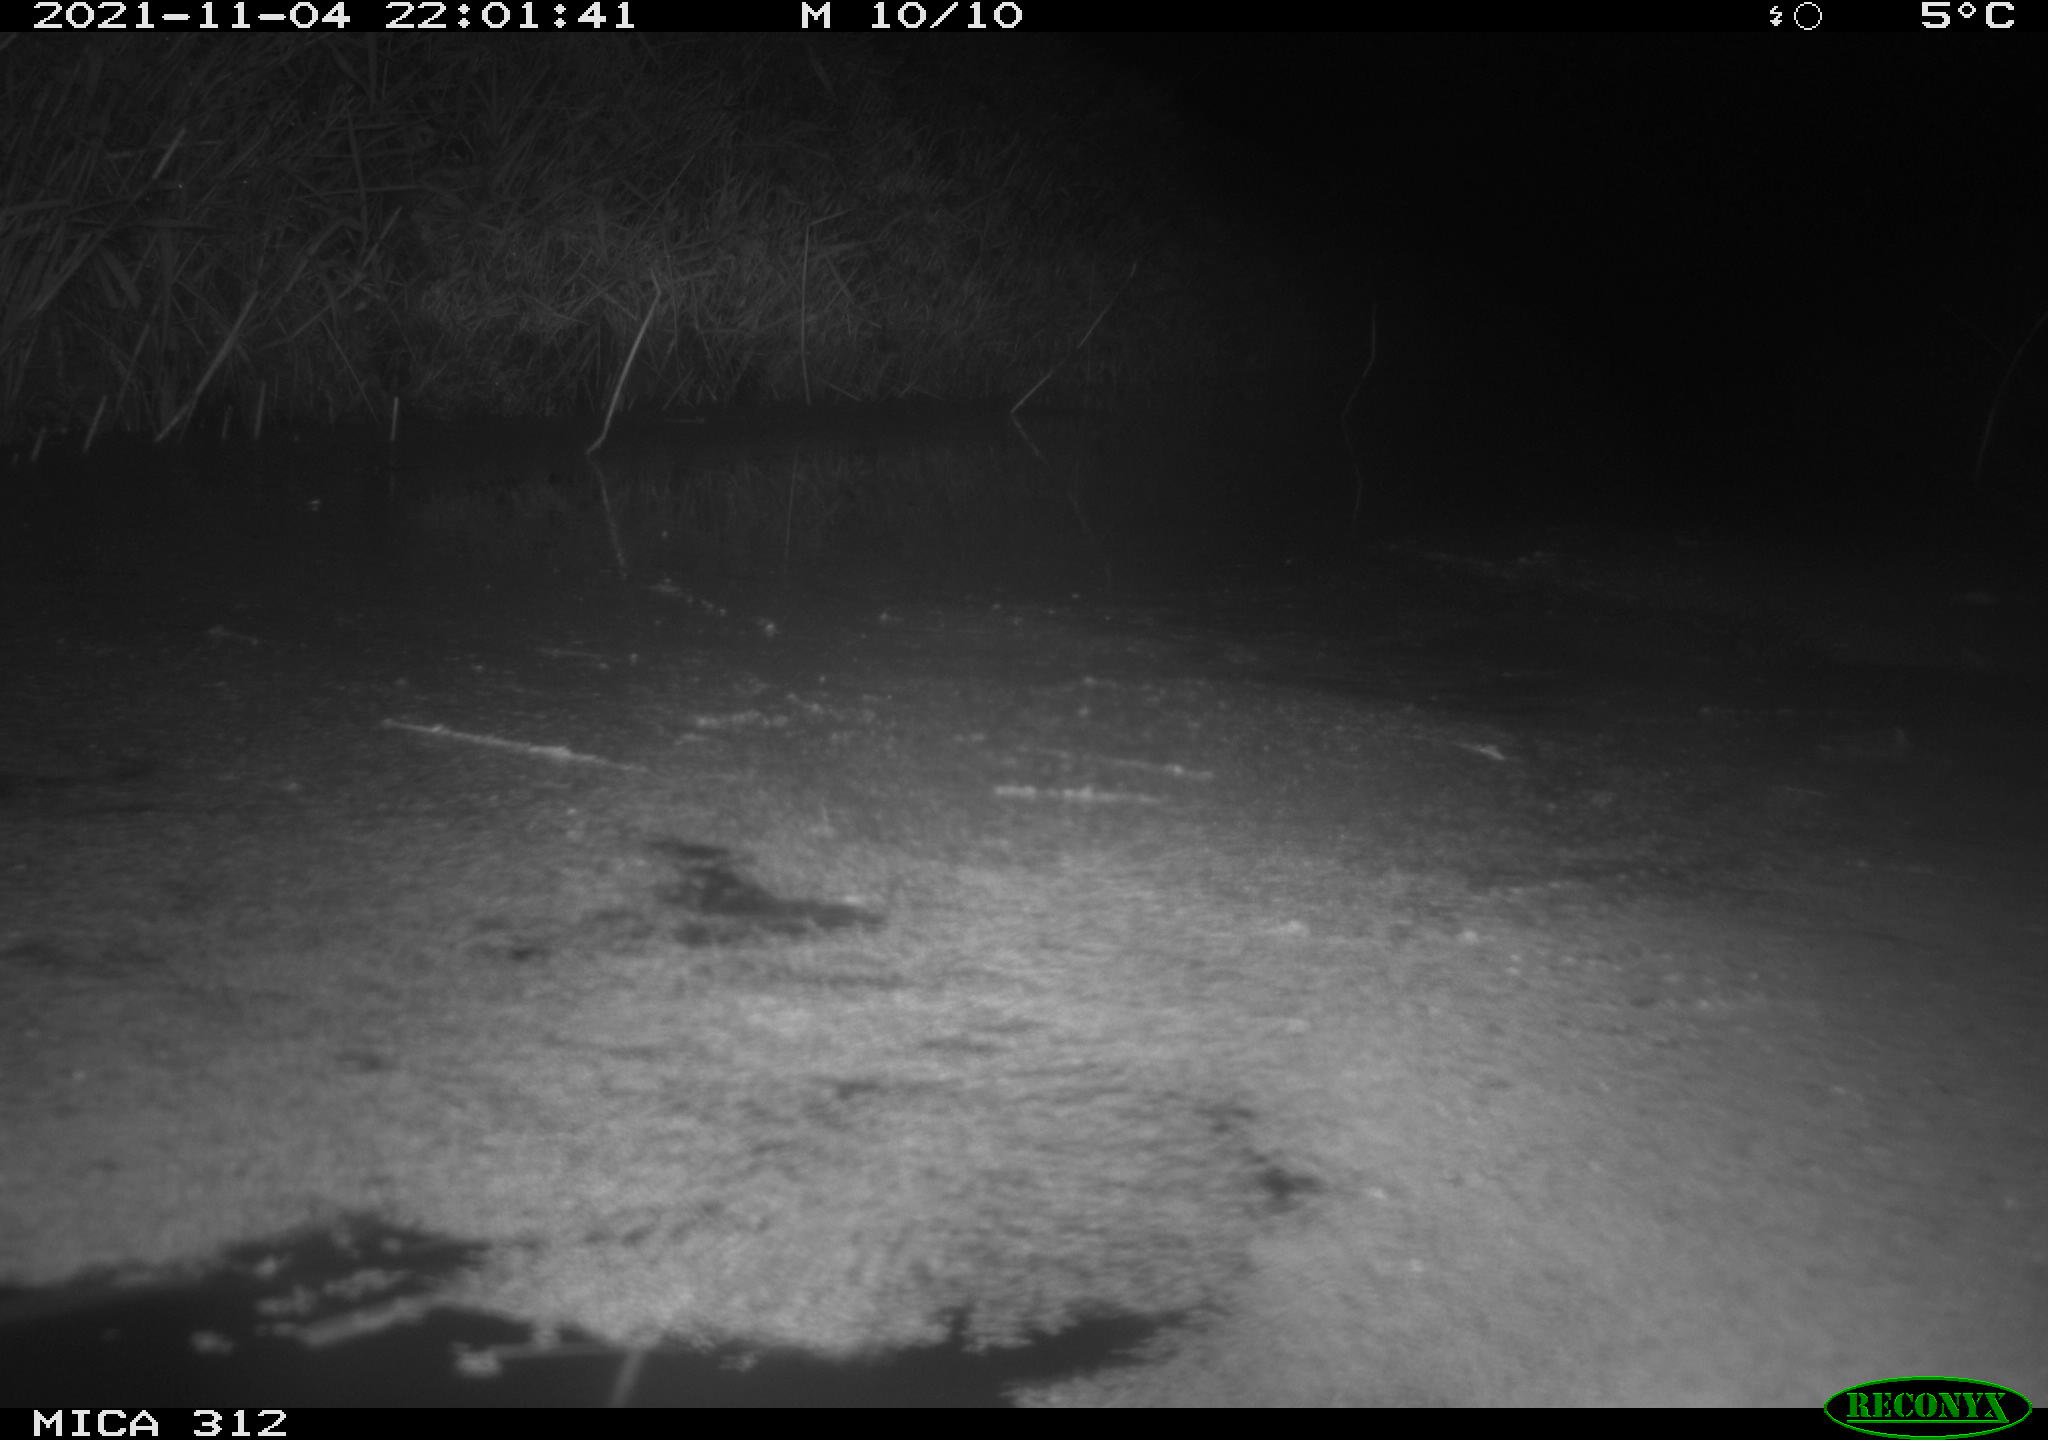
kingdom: Animalia
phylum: Chordata
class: Mammalia
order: Rodentia
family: Muridae
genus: Rattus
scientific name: Rattus norvegicus
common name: Brown rat
